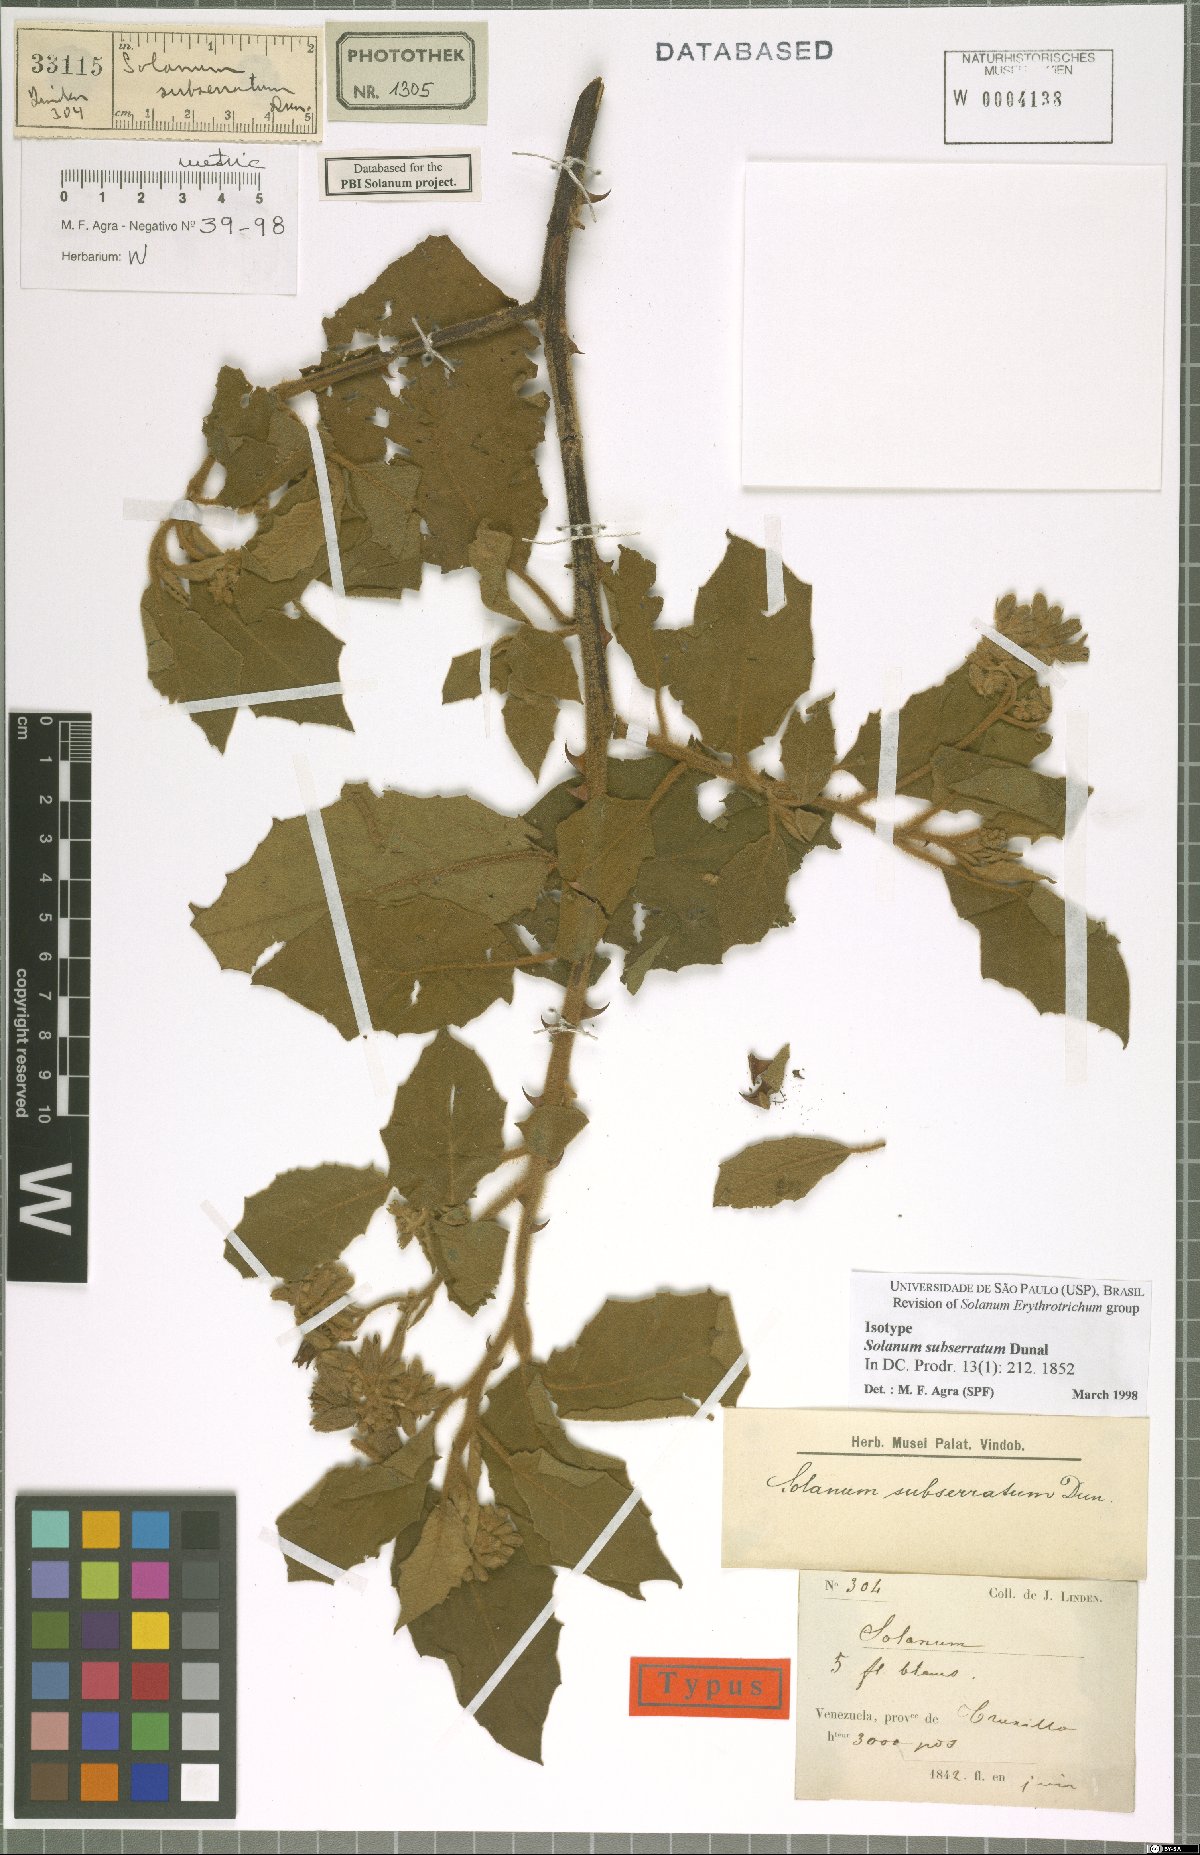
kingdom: Plantae
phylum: Tracheophyta
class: Magnoliopsida
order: Solanales
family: Solanaceae
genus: Solanum
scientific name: Solanum subserratum
